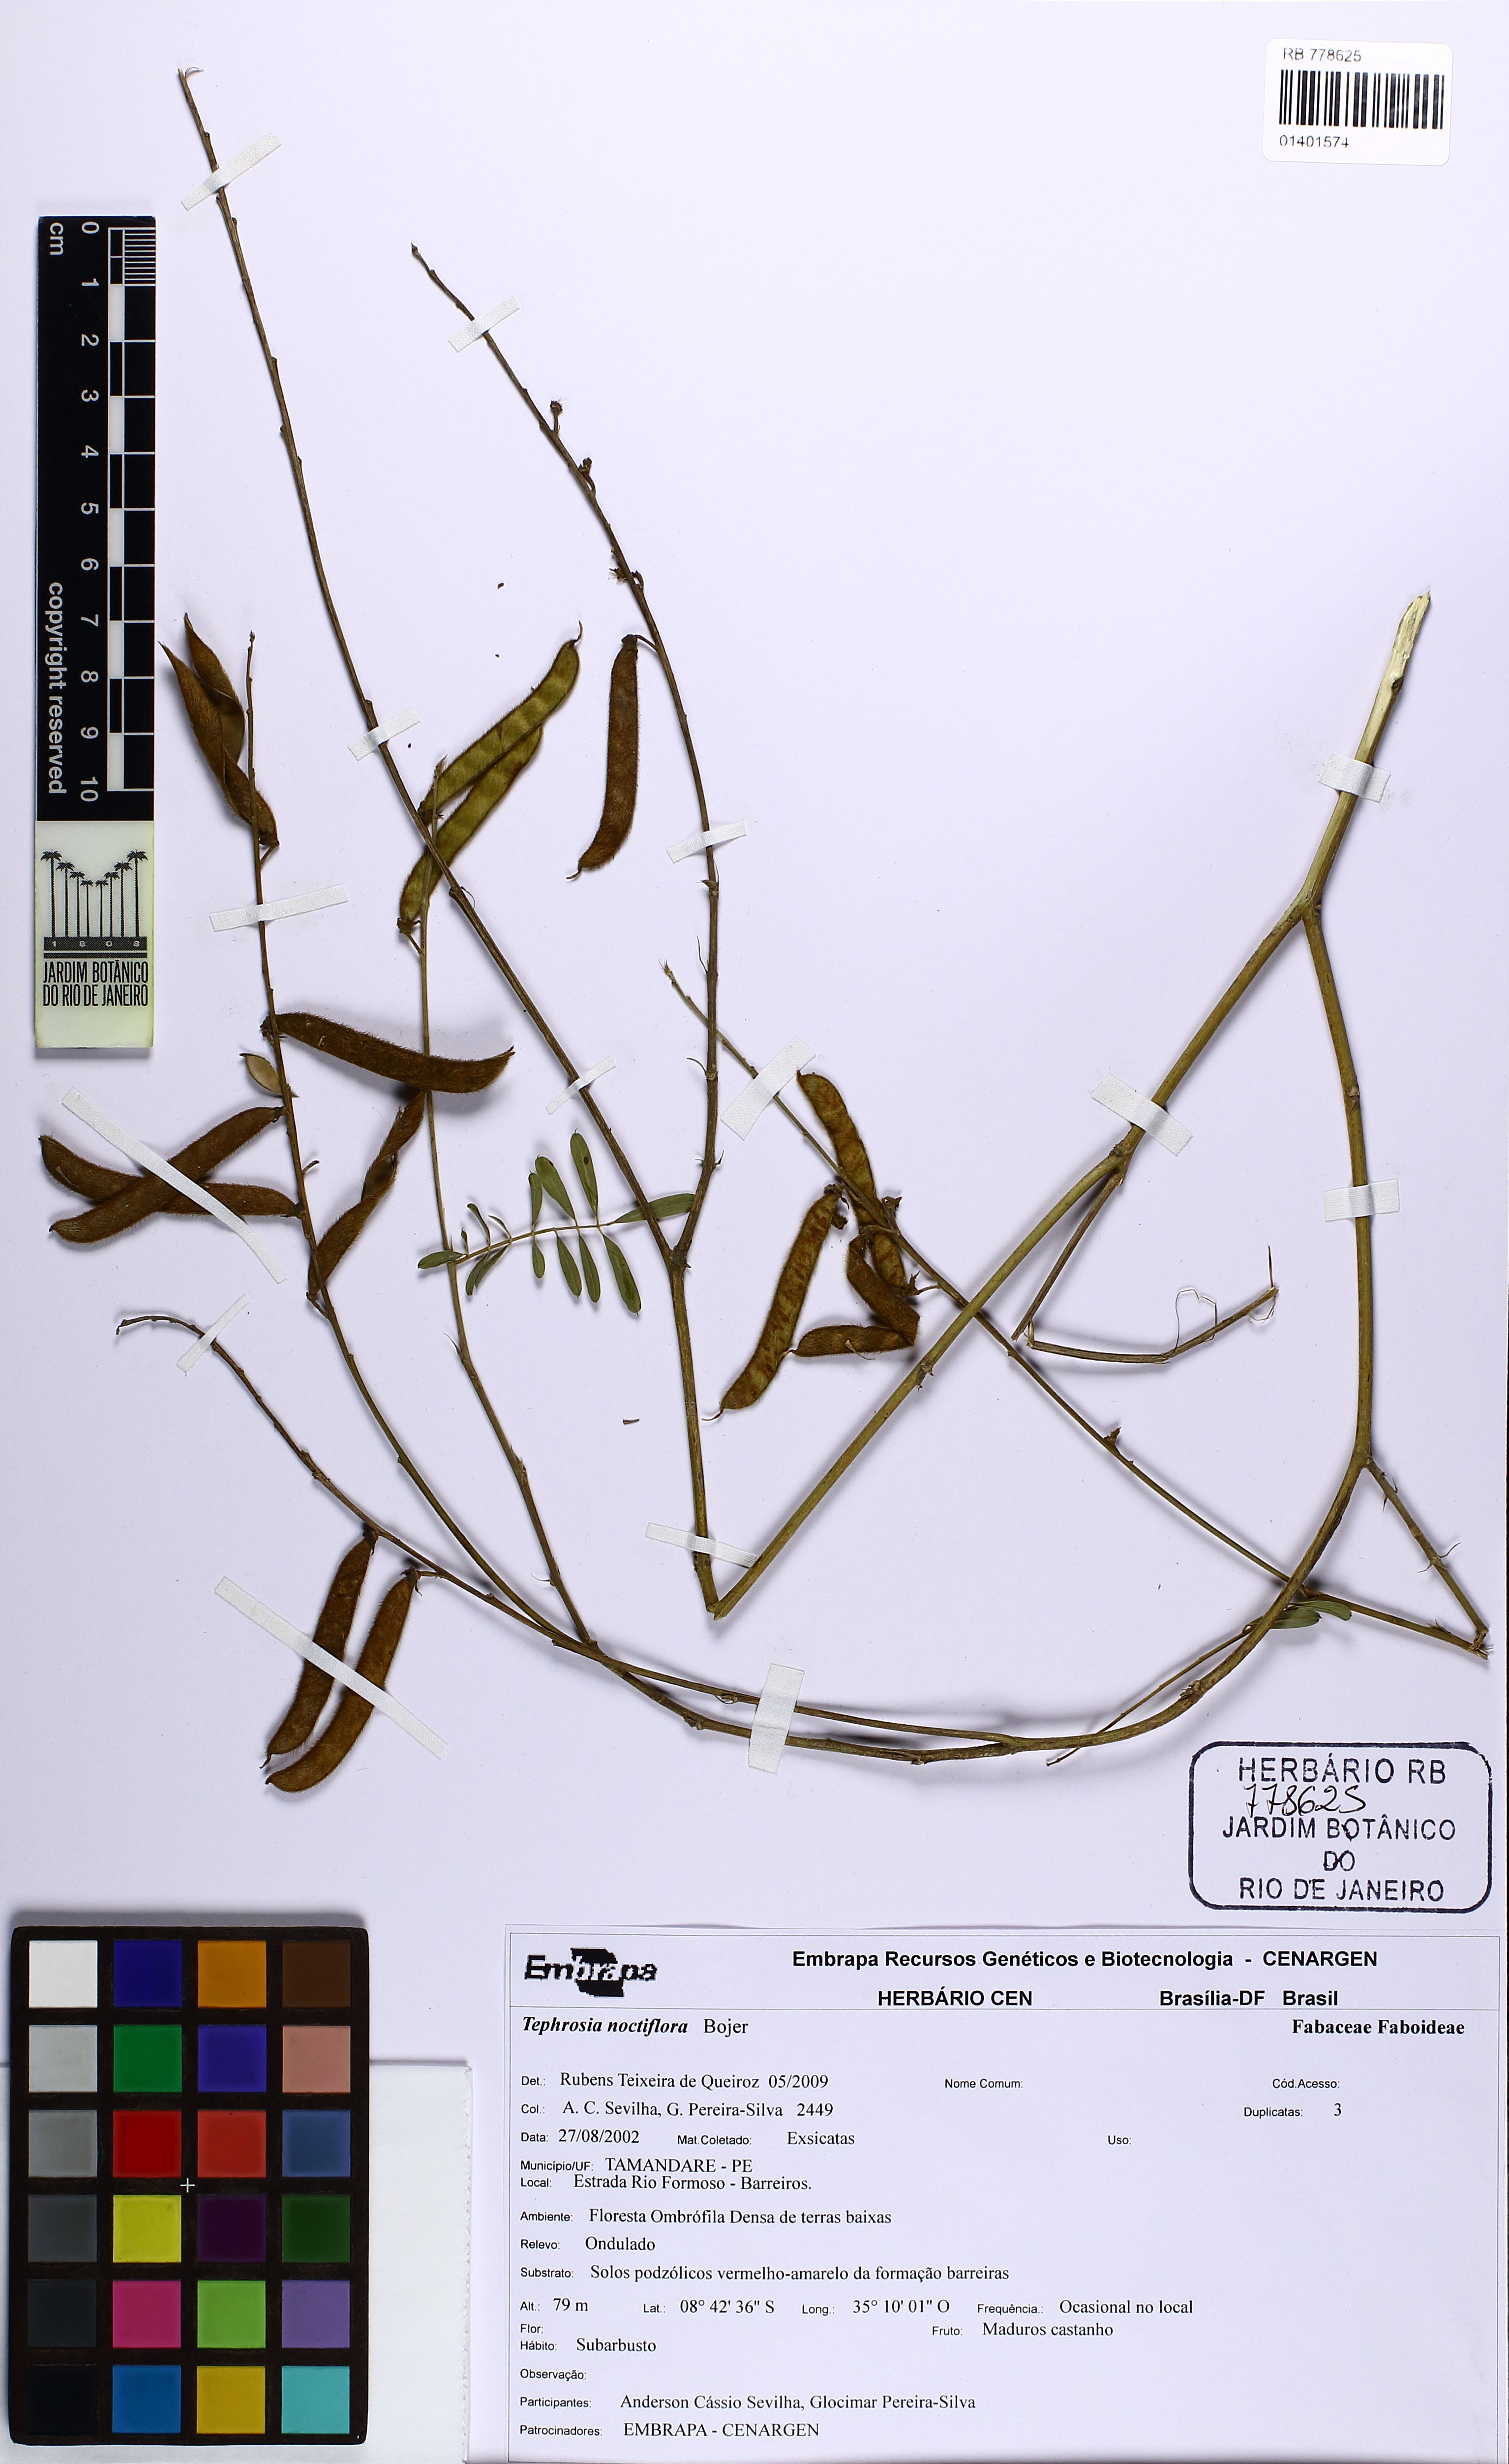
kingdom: Plantae
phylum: Tracheophyta
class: Magnoliopsida
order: Fabales
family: Fabaceae
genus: Tephrosia
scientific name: Tephrosia noctiflora
